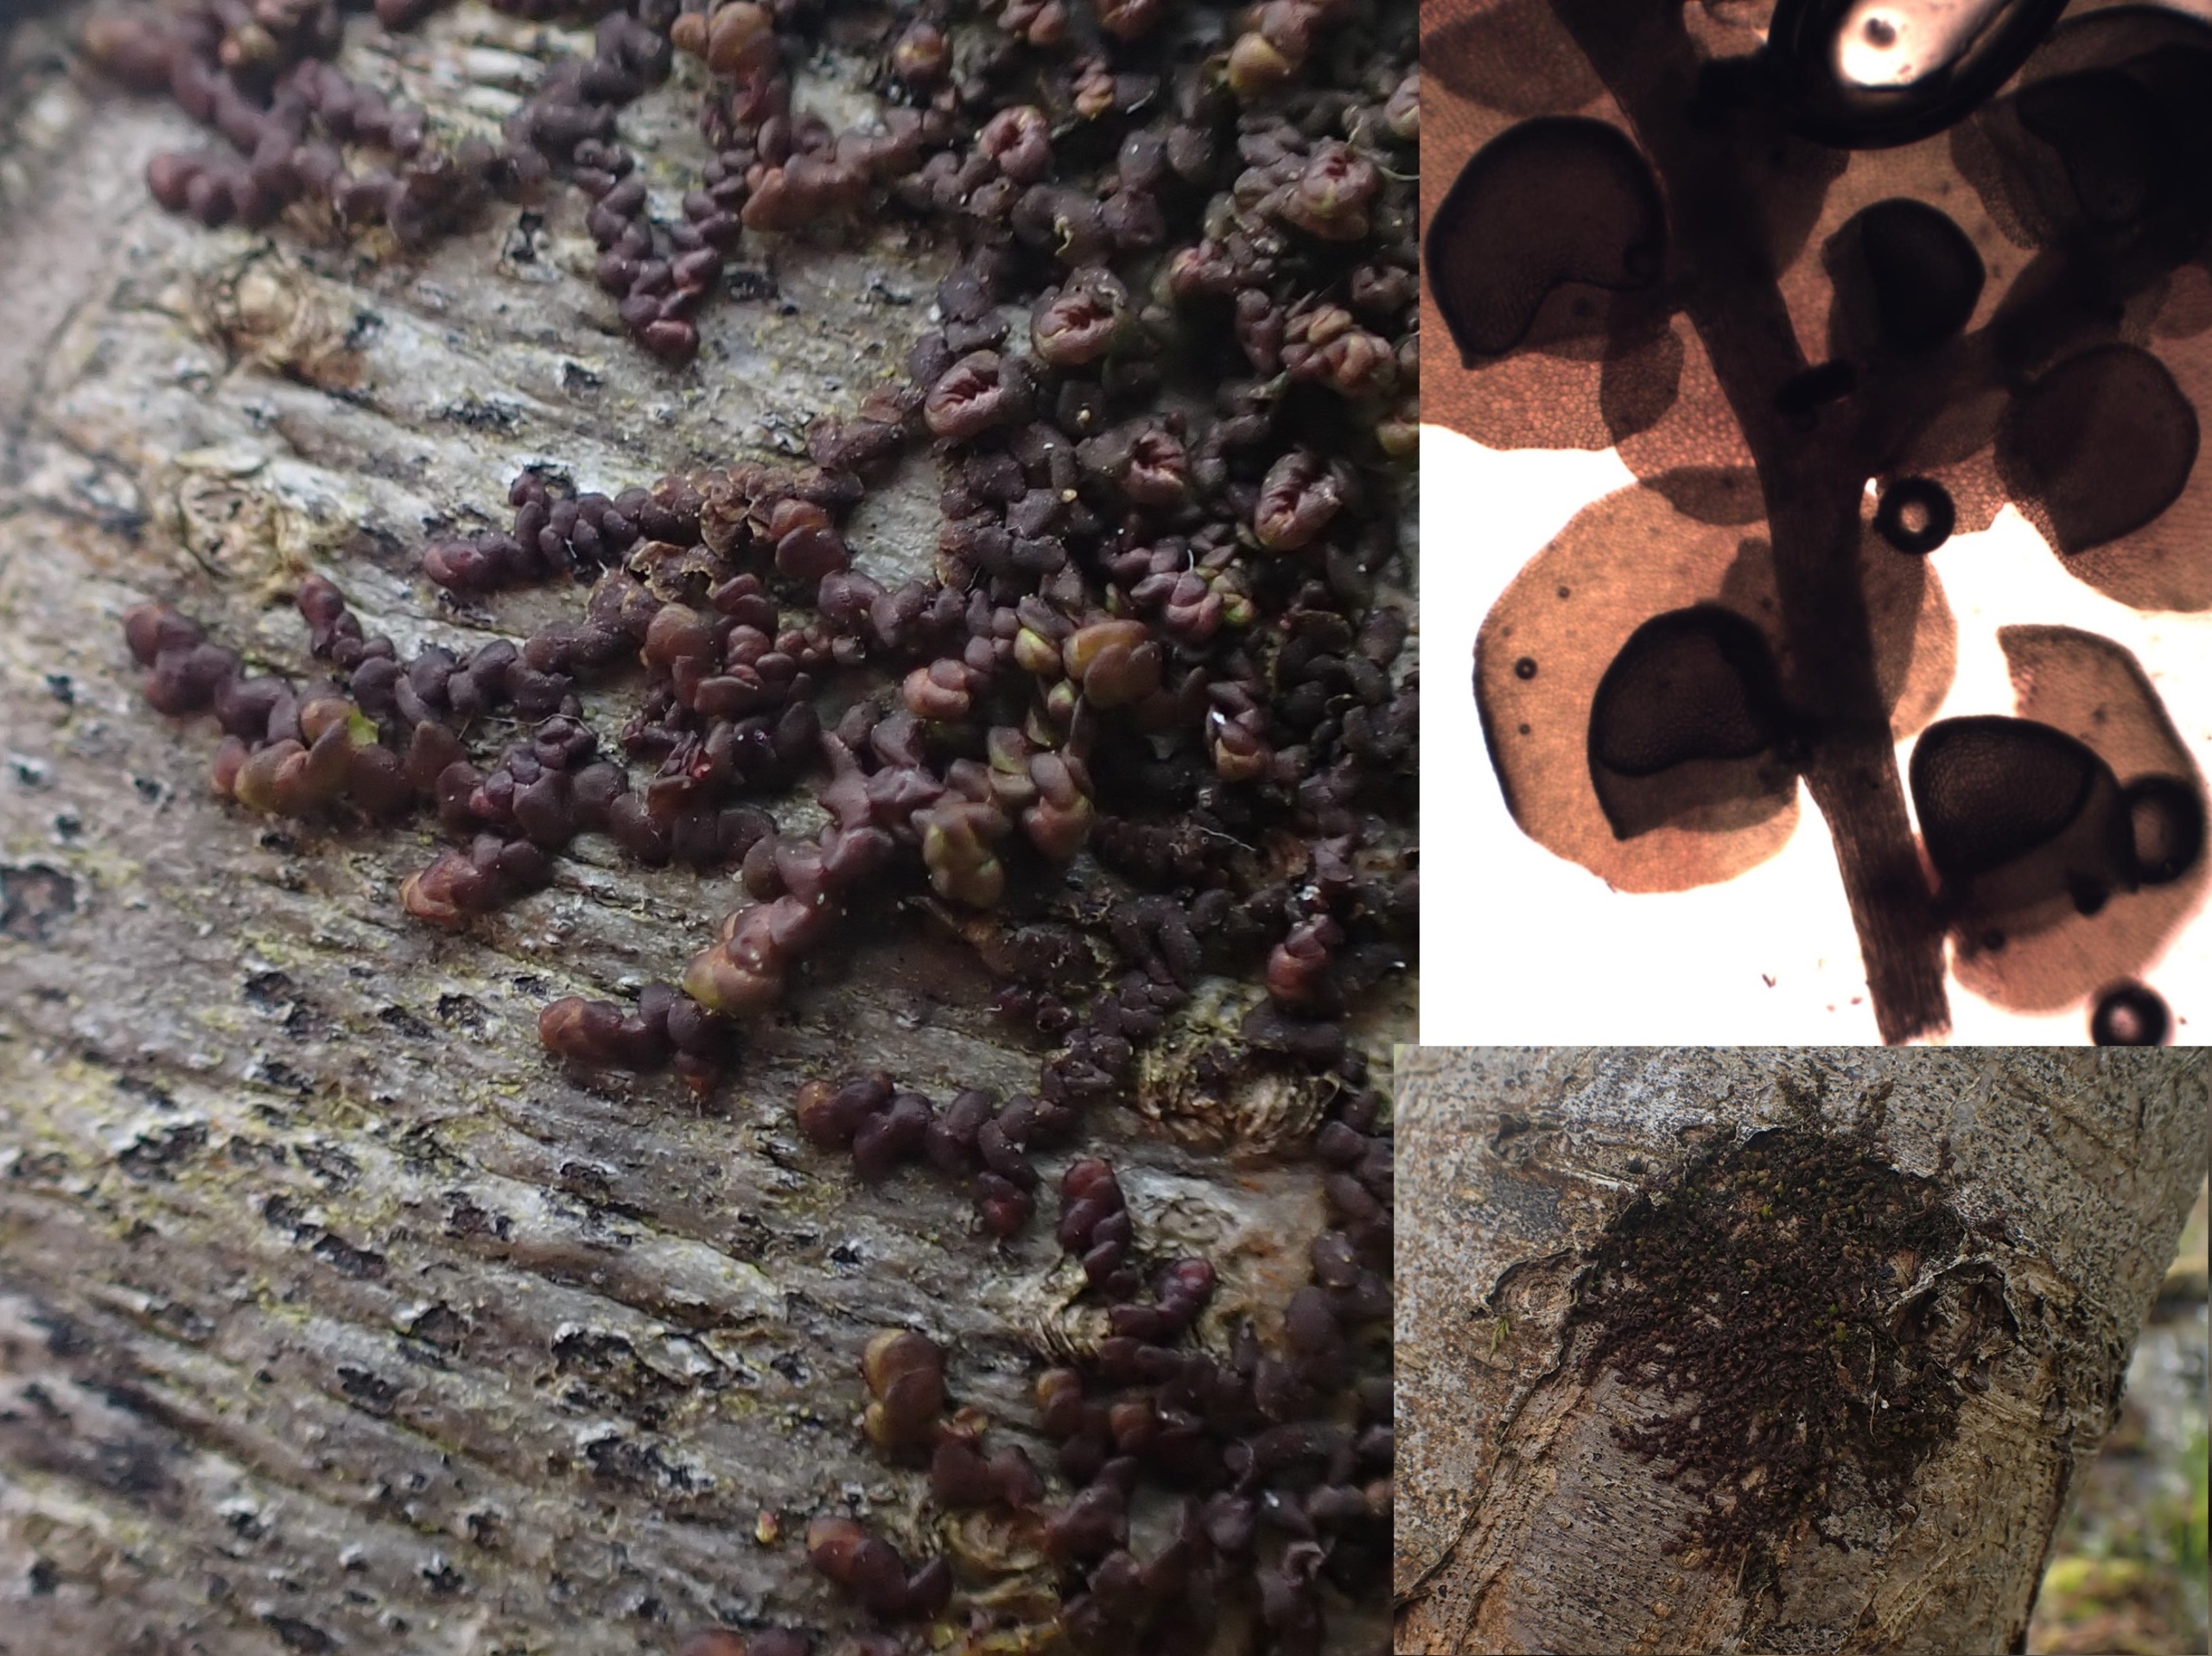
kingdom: Plantae
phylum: Marchantiophyta
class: Jungermanniopsida
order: Porellales
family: Frullaniaceae
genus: Frullania
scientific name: Frullania dilatata
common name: Mat bronzemos
